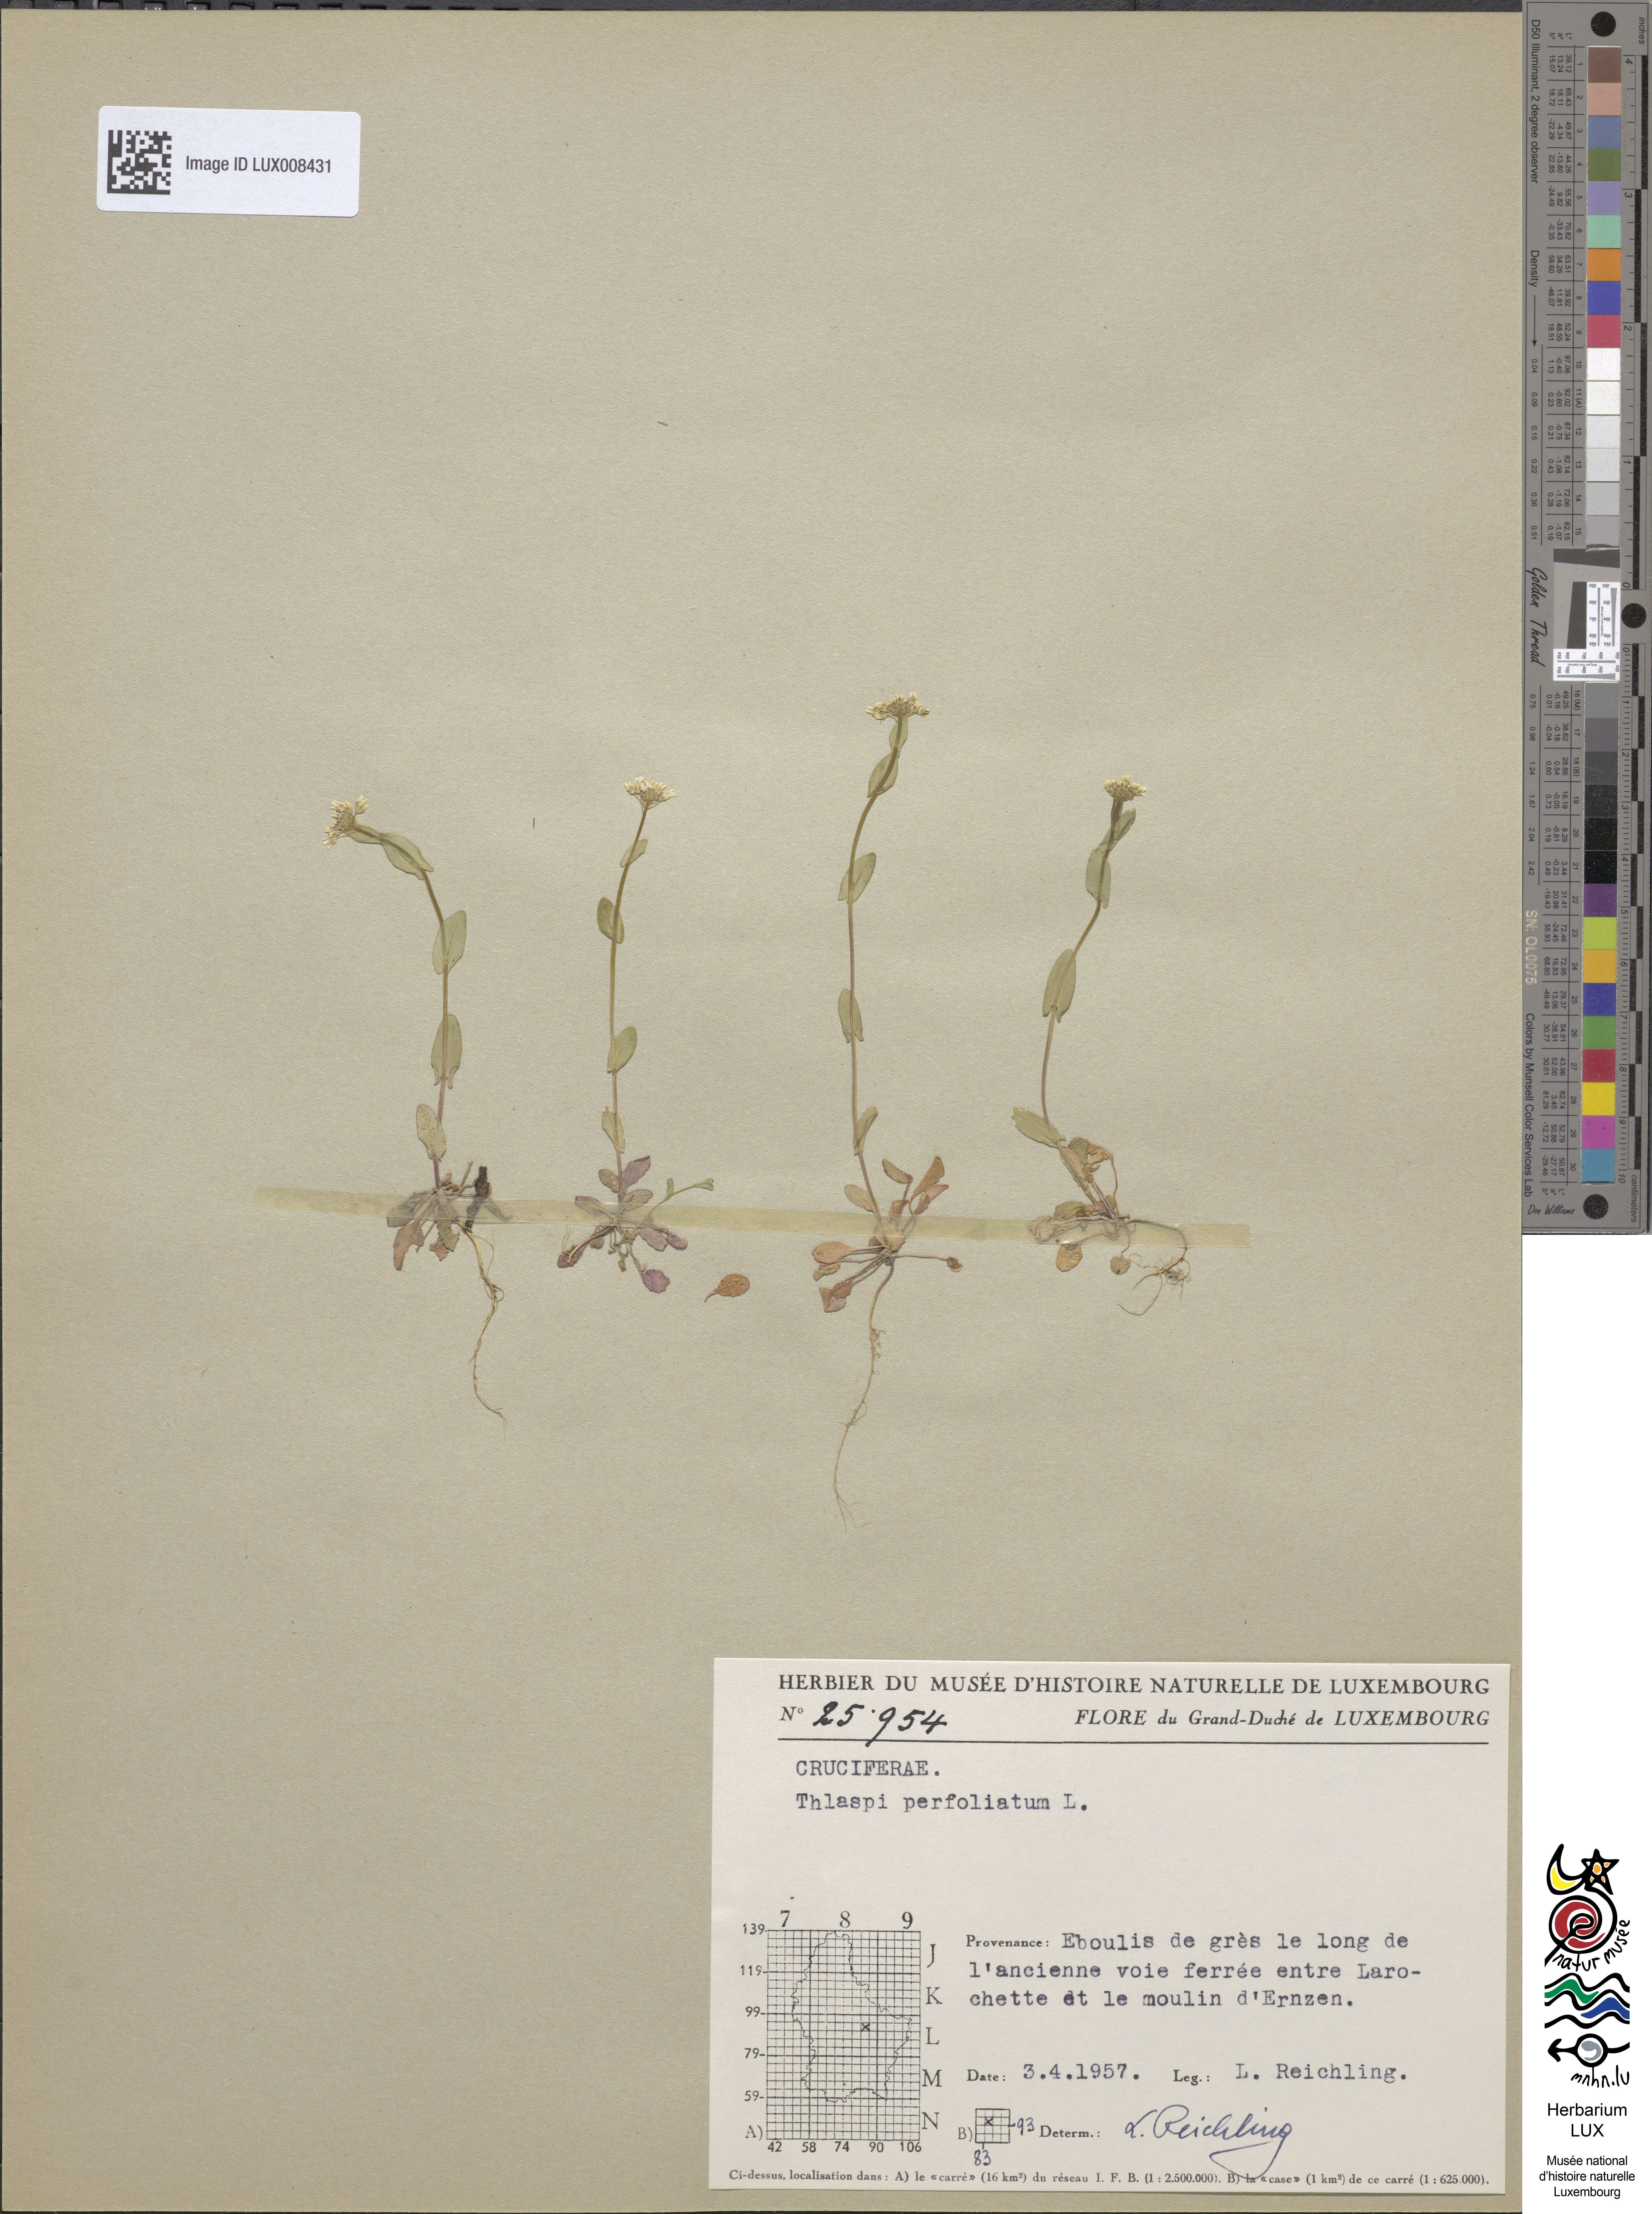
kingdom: Plantae
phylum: Tracheophyta
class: Magnoliopsida
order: Brassicales
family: Brassicaceae
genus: Noccaea
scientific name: Noccaea perfoliata
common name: Perfoliate pennycress
